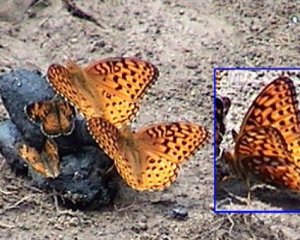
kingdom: Animalia
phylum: Arthropoda
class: Insecta
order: Lepidoptera
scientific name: Lepidoptera
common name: Butterflies
